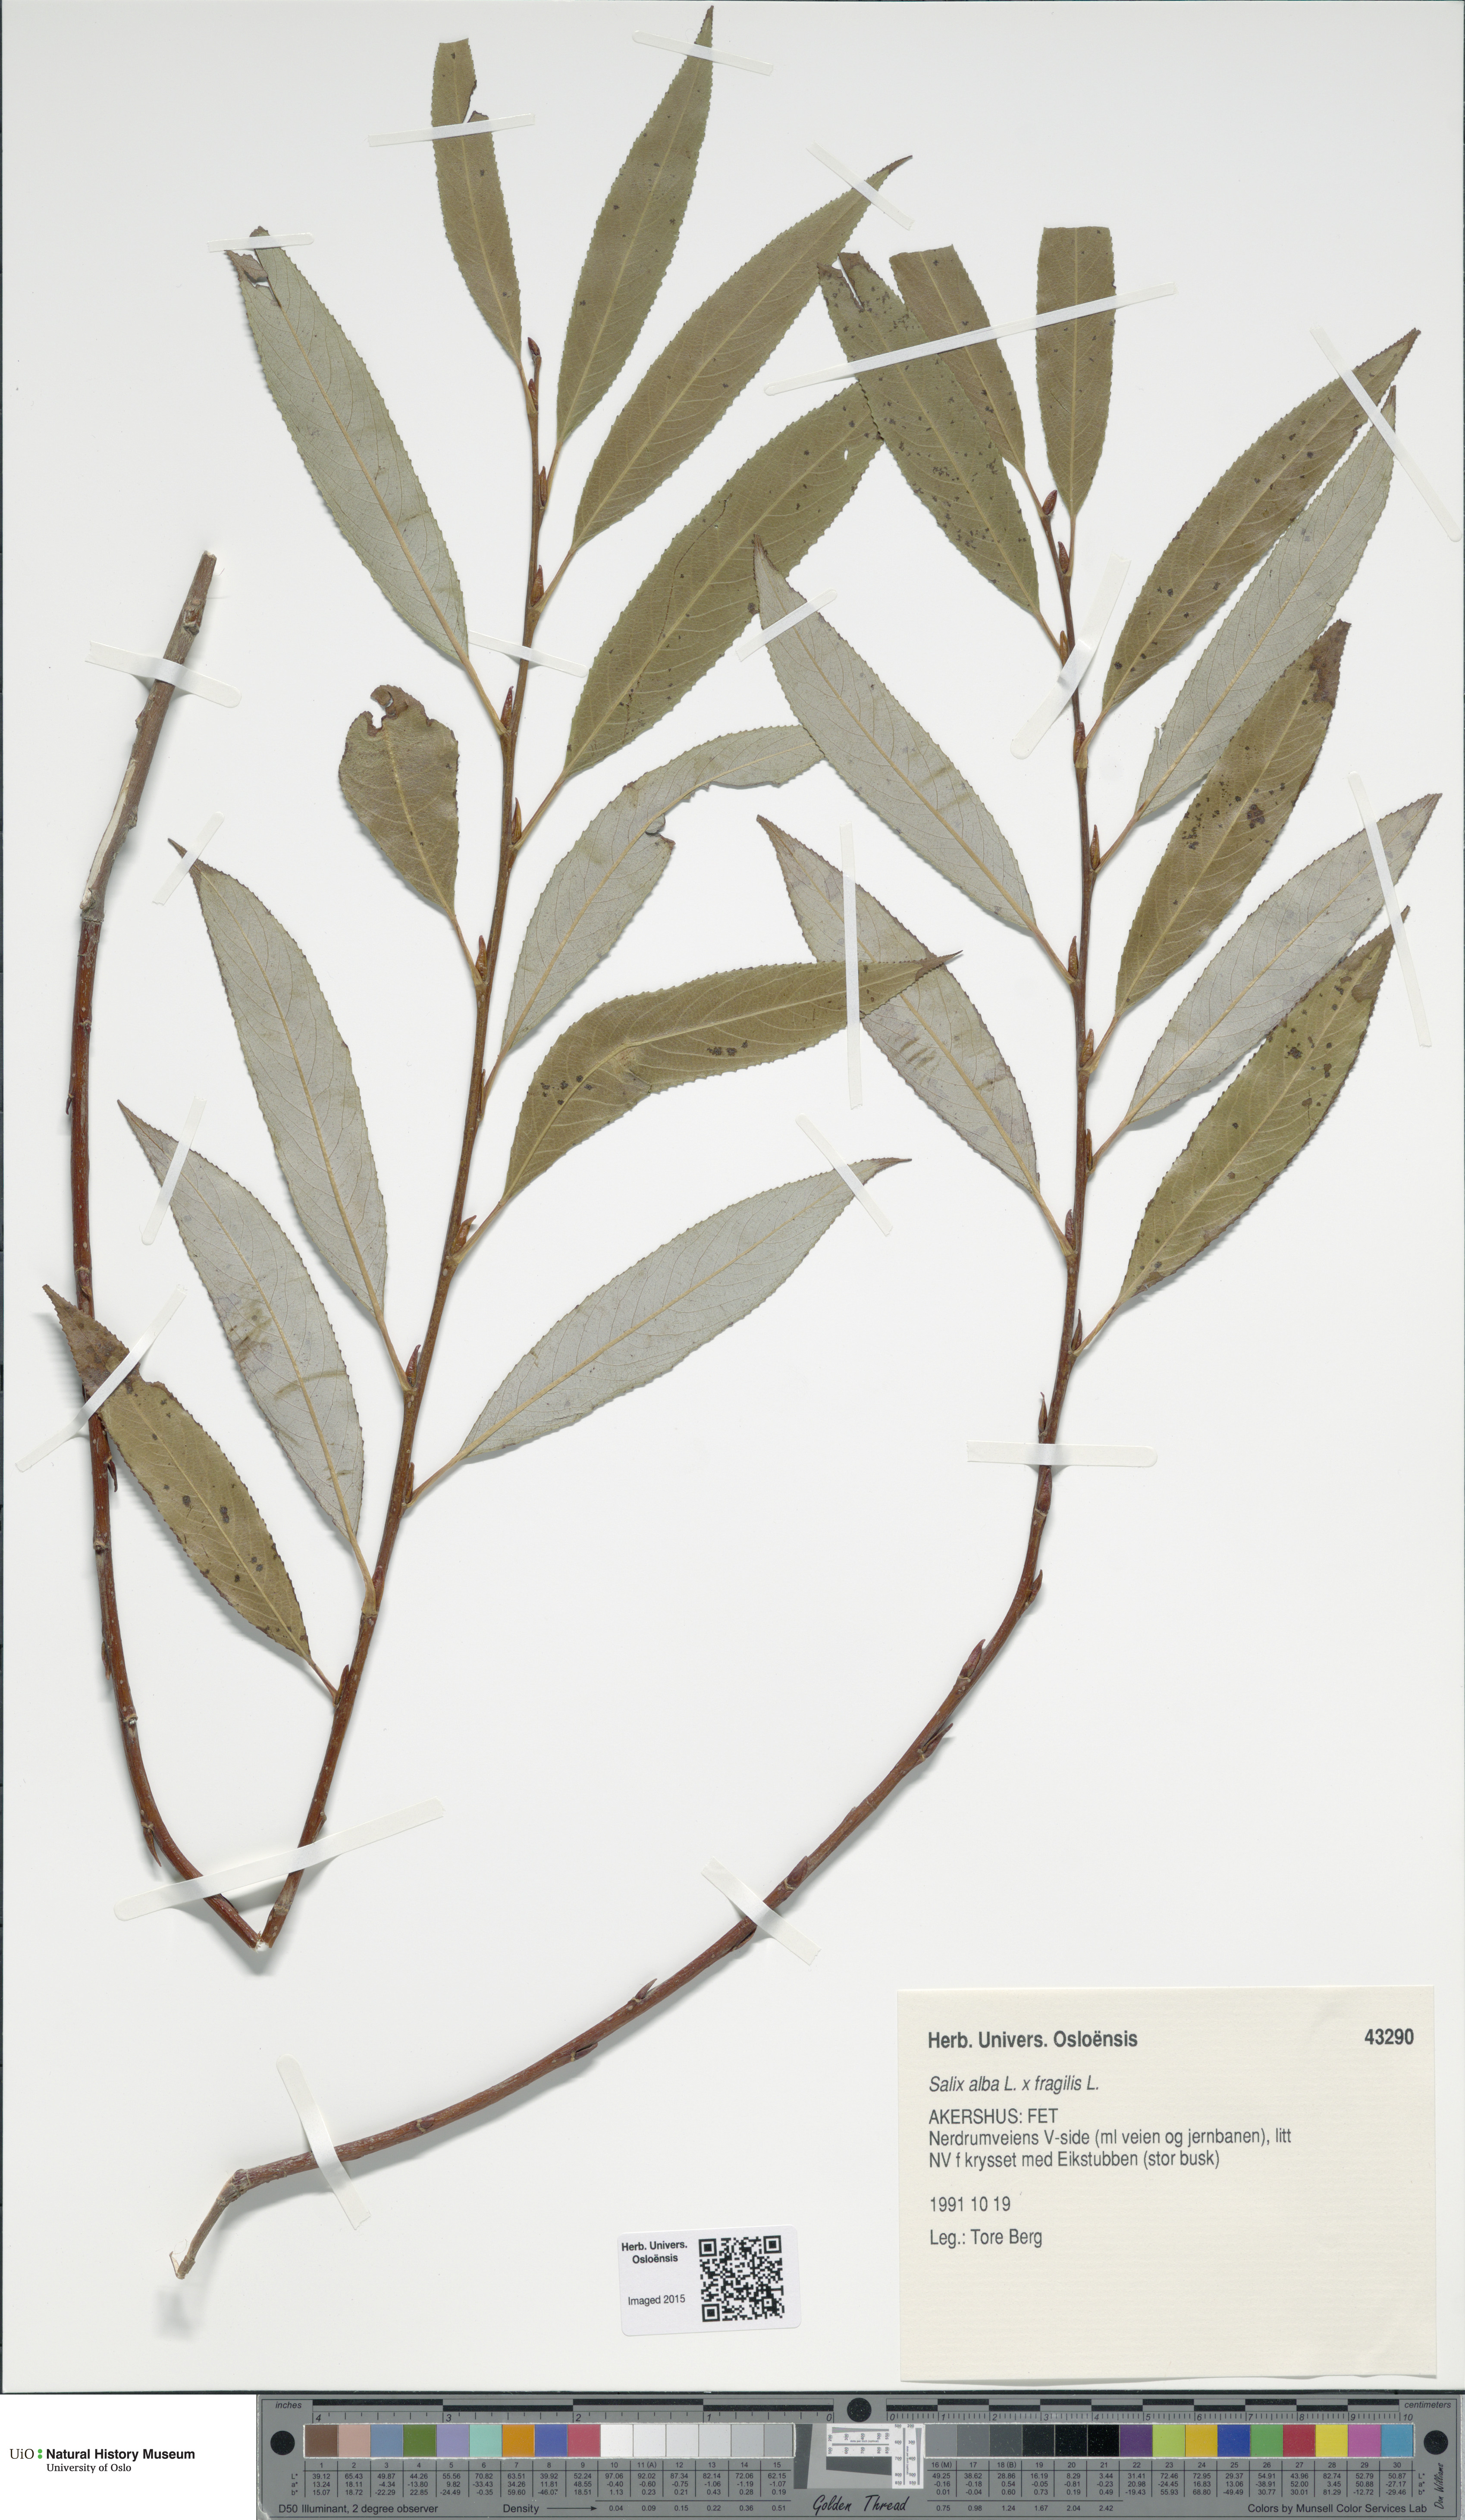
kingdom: Plantae
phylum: Tracheophyta
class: Magnoliopsida
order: Malpighiales
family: Salicaceae
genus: Salix
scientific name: Salix
